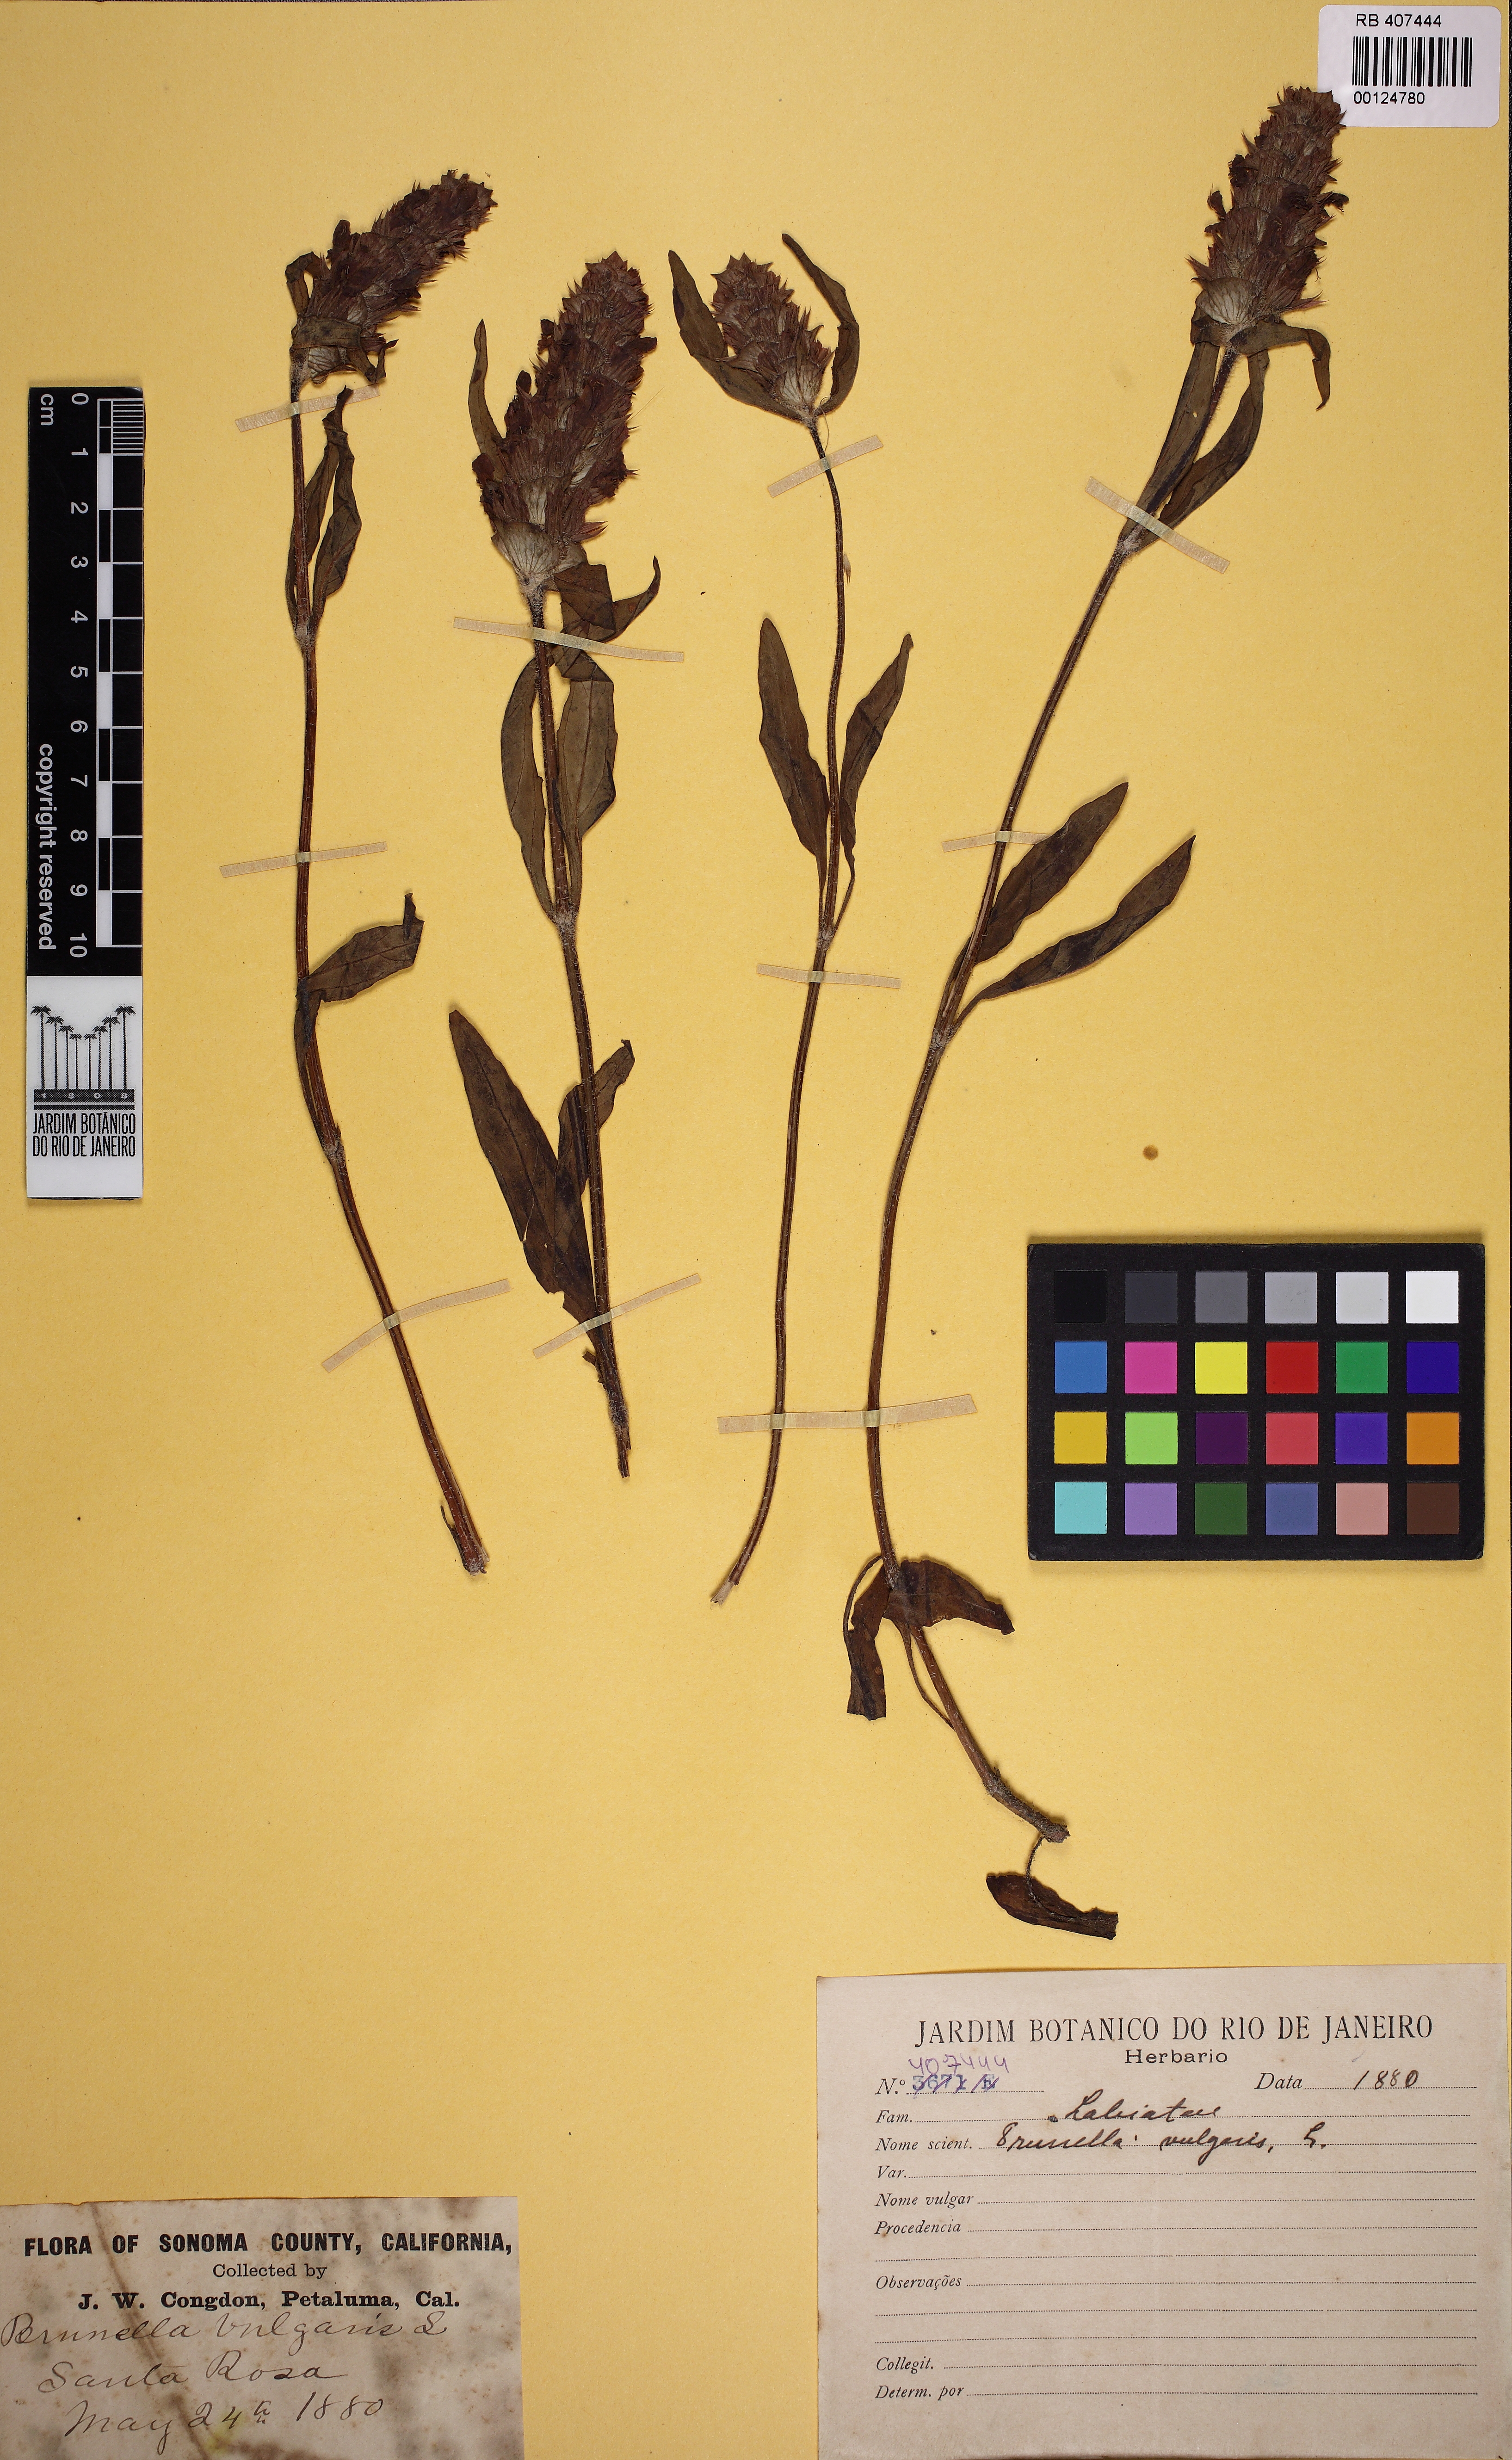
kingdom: Plantae
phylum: Tracheophyta
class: Magnoliopsida
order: Lamiales
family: Lamiaceae
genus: Prunella
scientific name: Prunella vulgaris
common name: Heal-all
